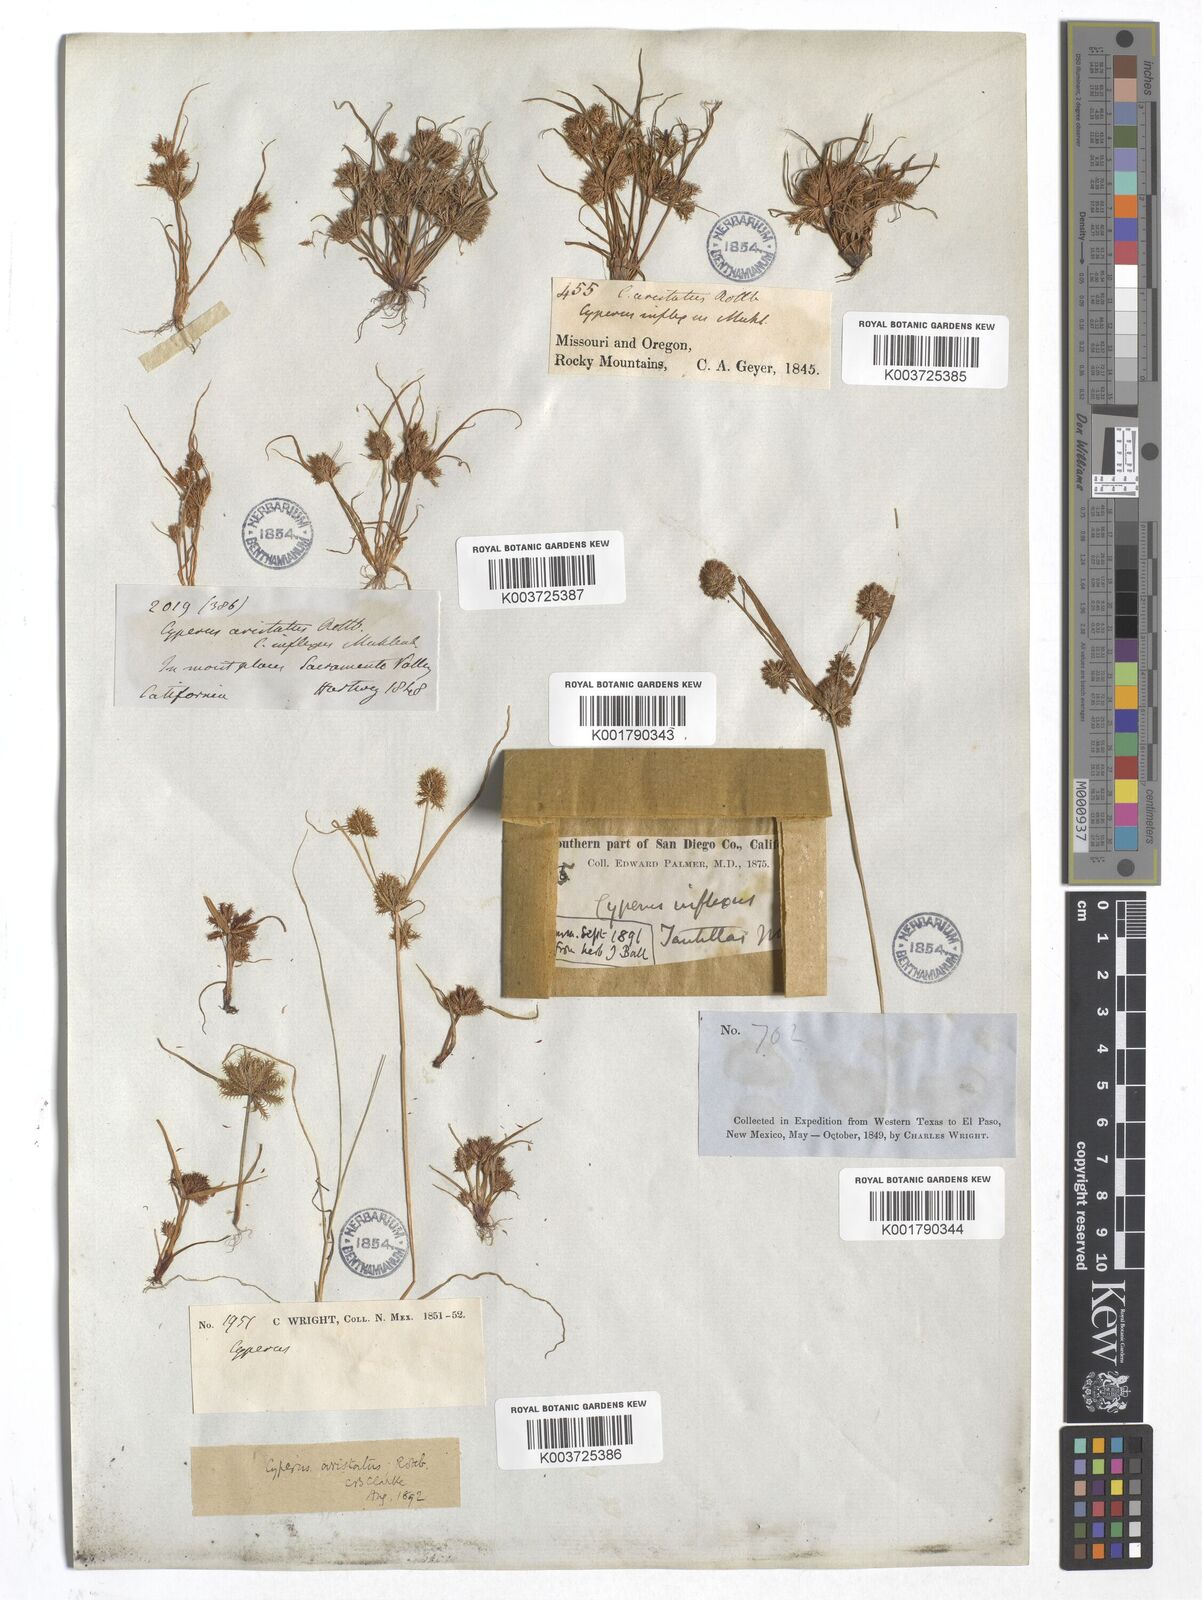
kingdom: Plantae
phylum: Tracheophyta
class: Liliopsida
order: Poales
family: Cyperaceae
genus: Cyperus
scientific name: Cyperus squarrosus
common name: Awned cyperus
